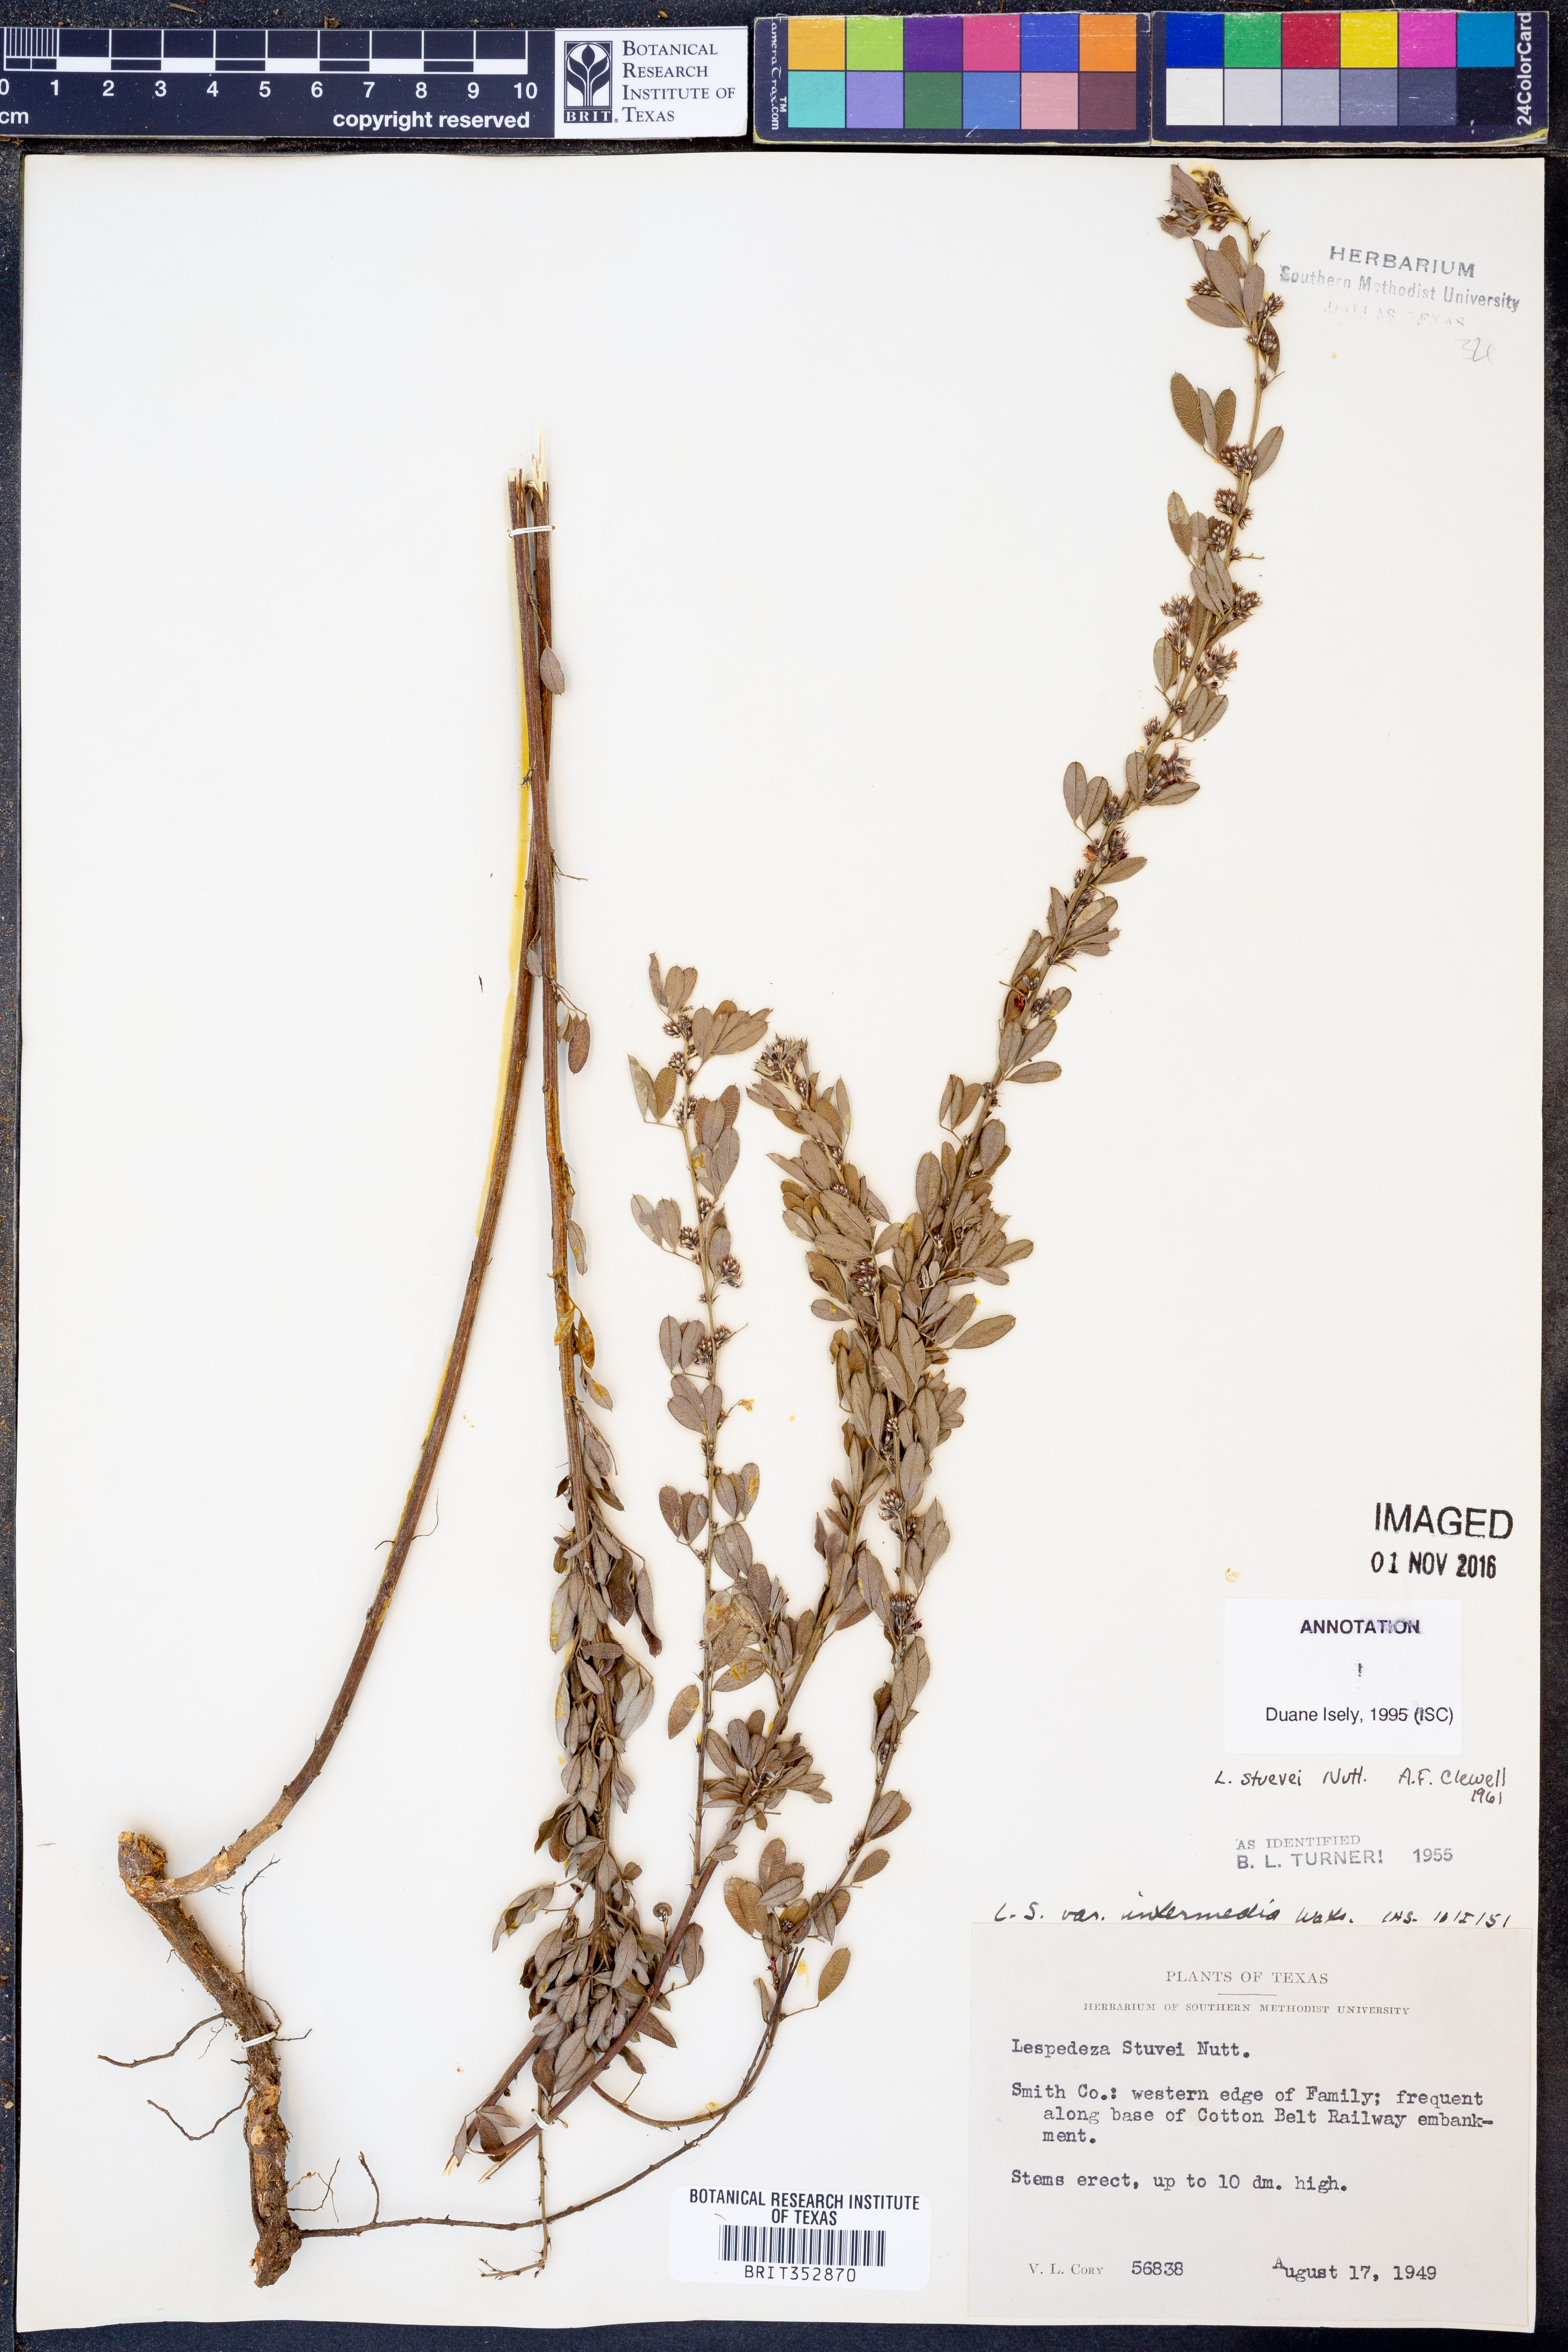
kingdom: Plantae
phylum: Tracheophyta
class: Magnoliopsida
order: Fabales
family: Fabaceae
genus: Lespedeza
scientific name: Lespedeza stuevei
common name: Tall bush-clover
